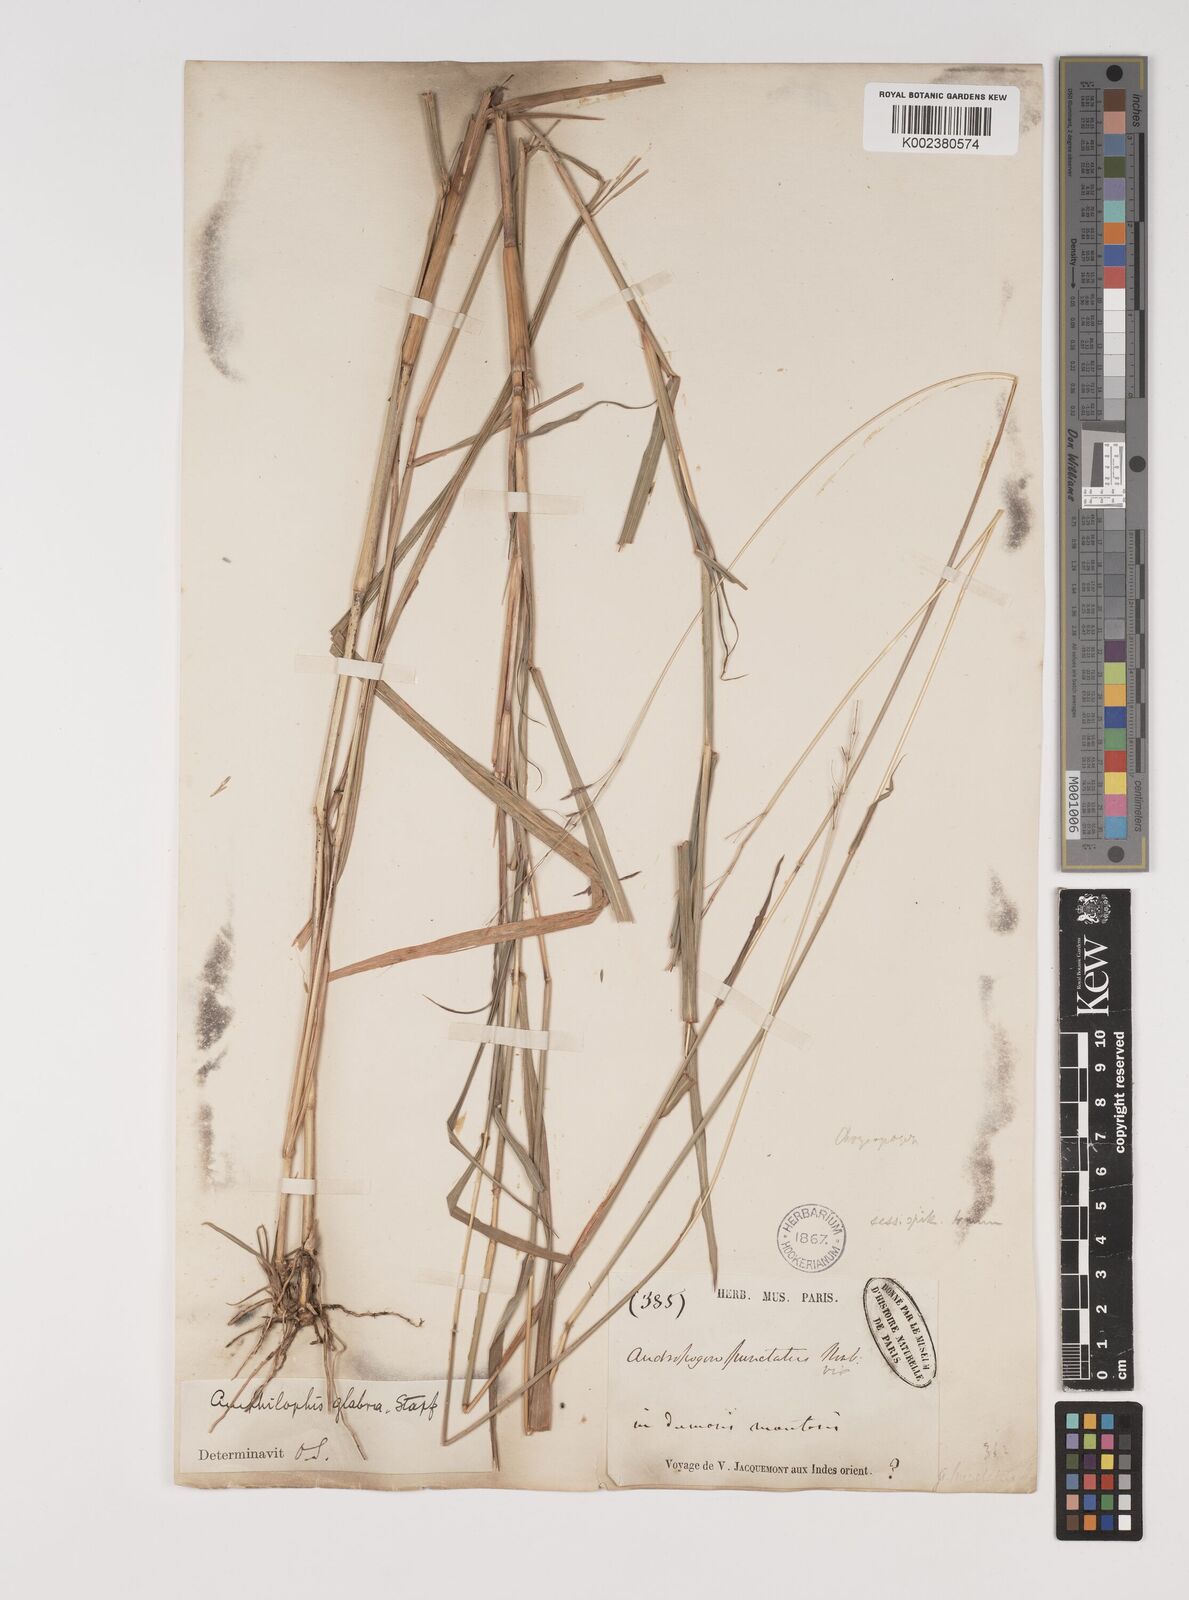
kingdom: Plantae
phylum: Tracheophyta
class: Liliopsida
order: Poales
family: Poaceae
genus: Bothriochloa
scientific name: Bothriochloa bladhii
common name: Caucasian bluestem
